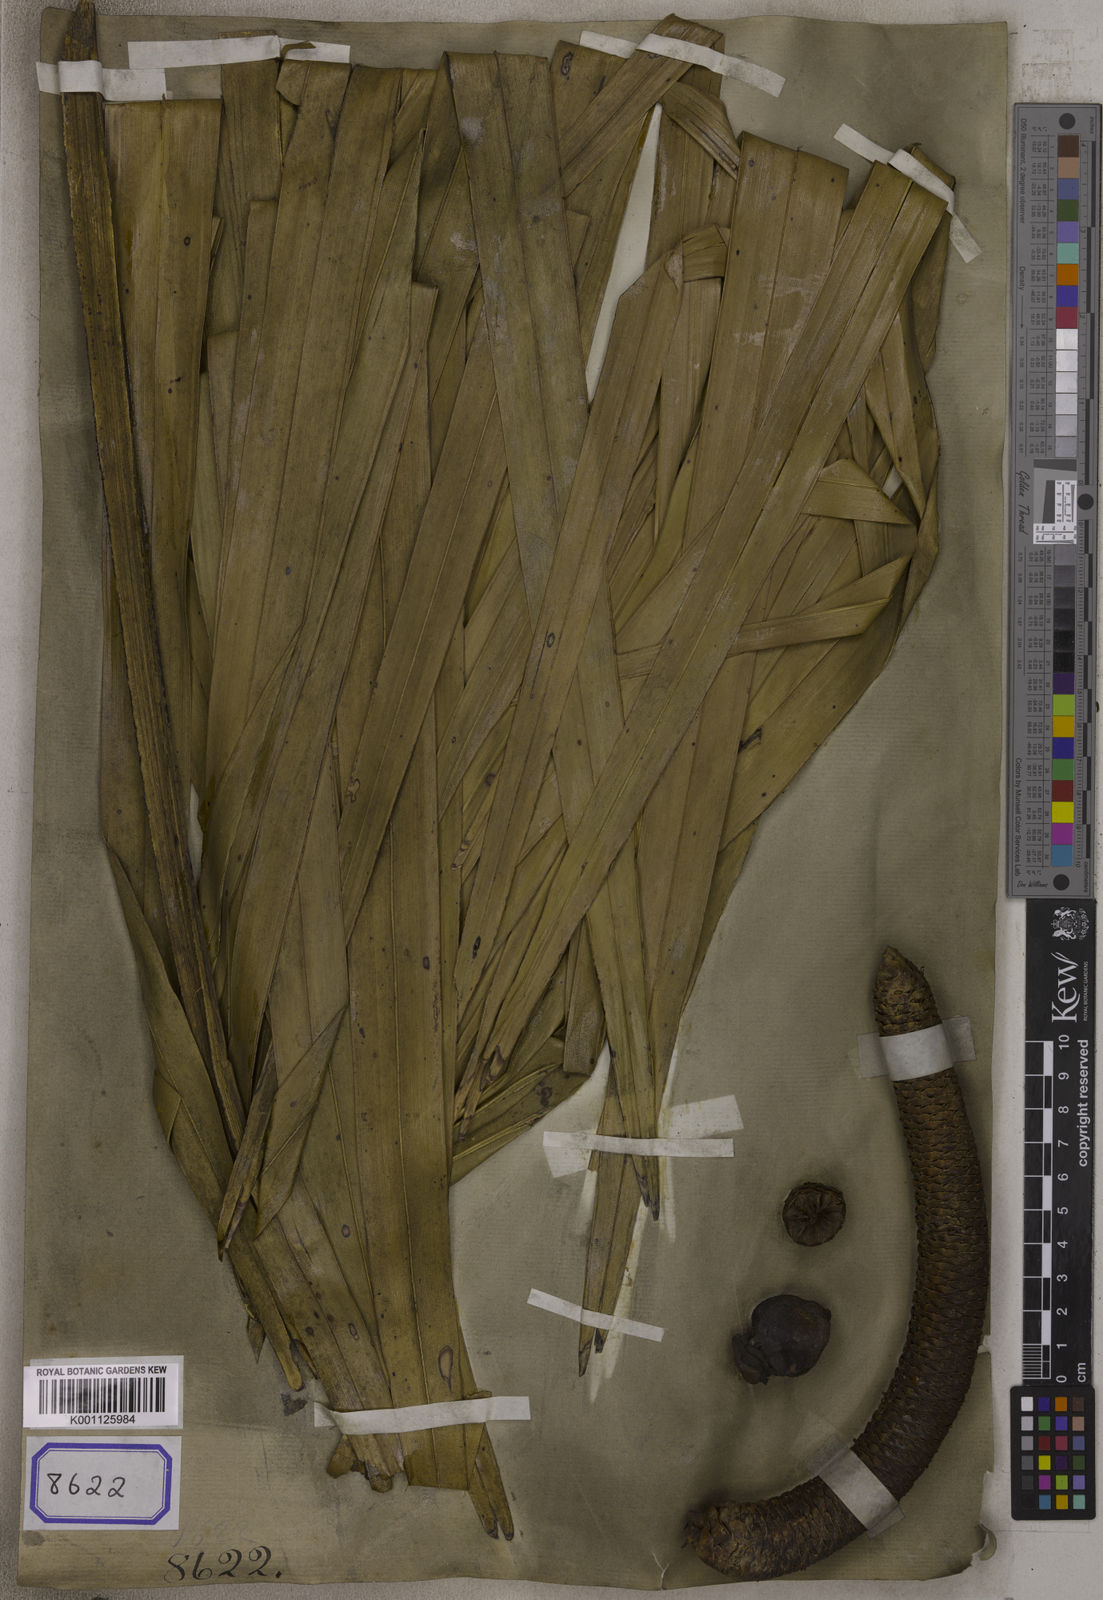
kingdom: Plantae
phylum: Tracheophyta
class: Liliopsida
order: Arecales
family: Arecaceae
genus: Borassus
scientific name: Borassus flabellifer
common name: Palmyra palm
